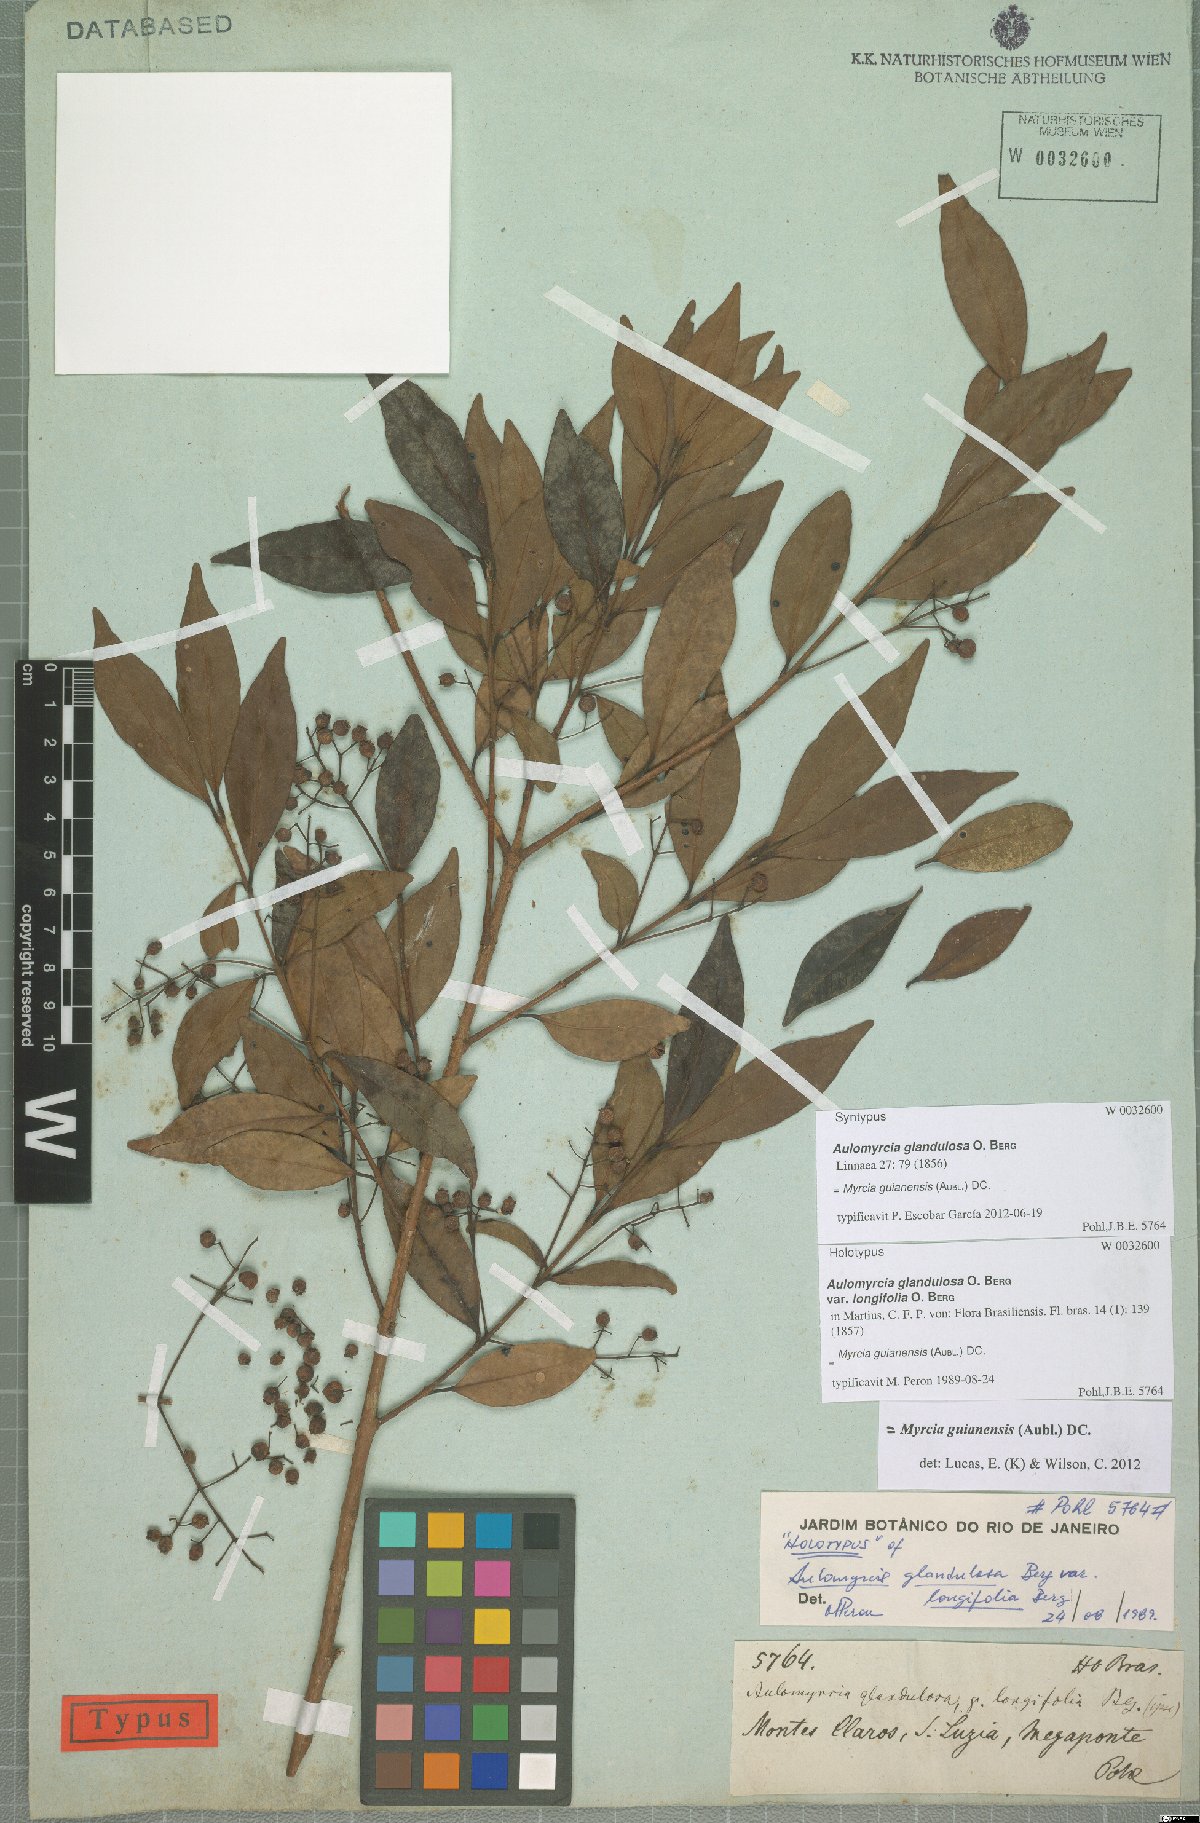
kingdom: Plantae
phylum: Tracheophyta
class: Magnoliopsida
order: Myrtales
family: Myrtaceae
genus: Myrcia
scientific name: Myrcia guianensis
